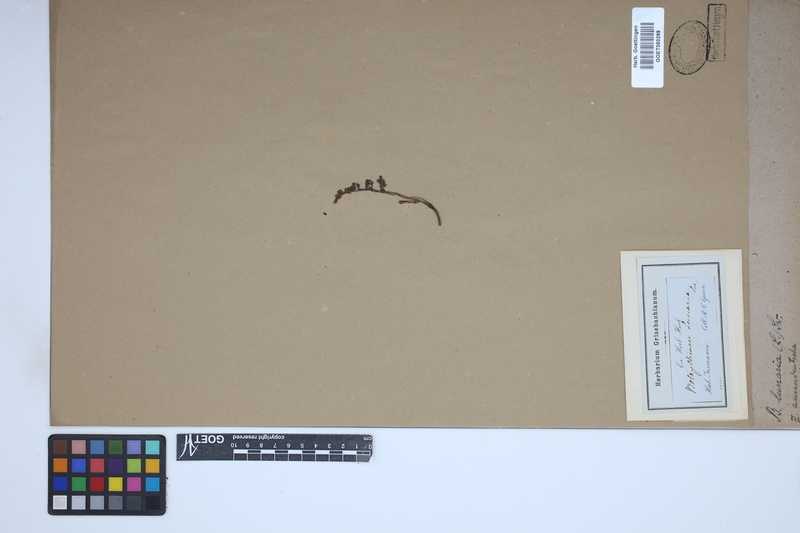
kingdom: Plantae
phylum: Tracheophyta
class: Polypodiopsida
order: Ophioglossales
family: Ophioglossaceae
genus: Botrychium
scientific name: Botrychium lunaria
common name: Moonwort
